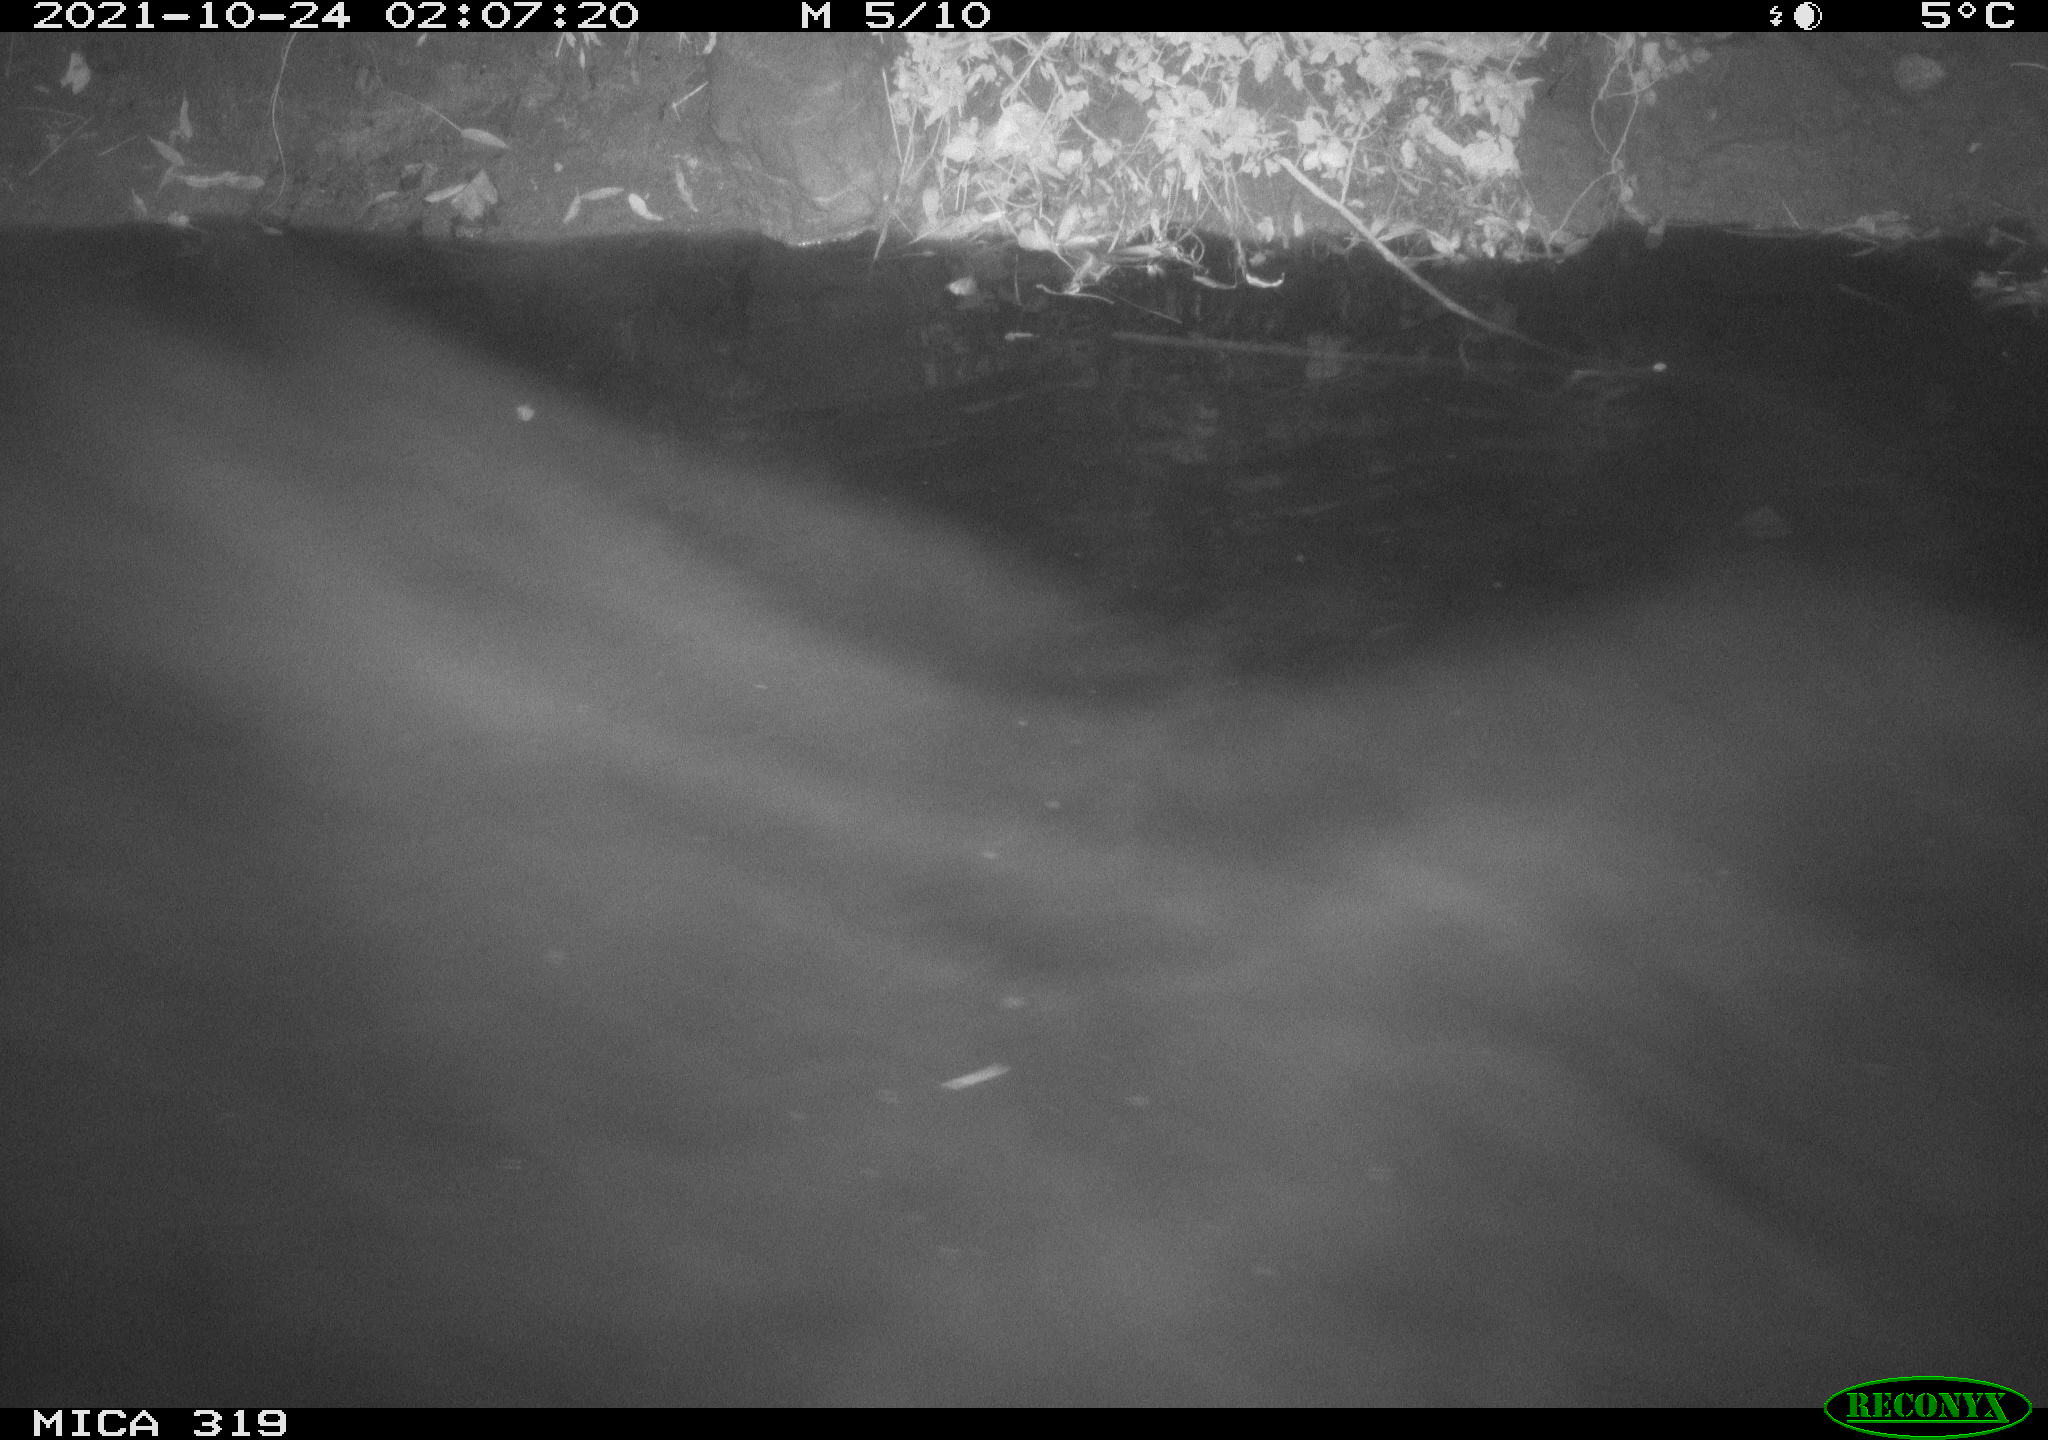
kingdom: Animalia
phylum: Chordata
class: Aves
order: Anseriformes
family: Anatidae
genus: Anas
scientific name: Anas platyrhynchos
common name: Mallard
